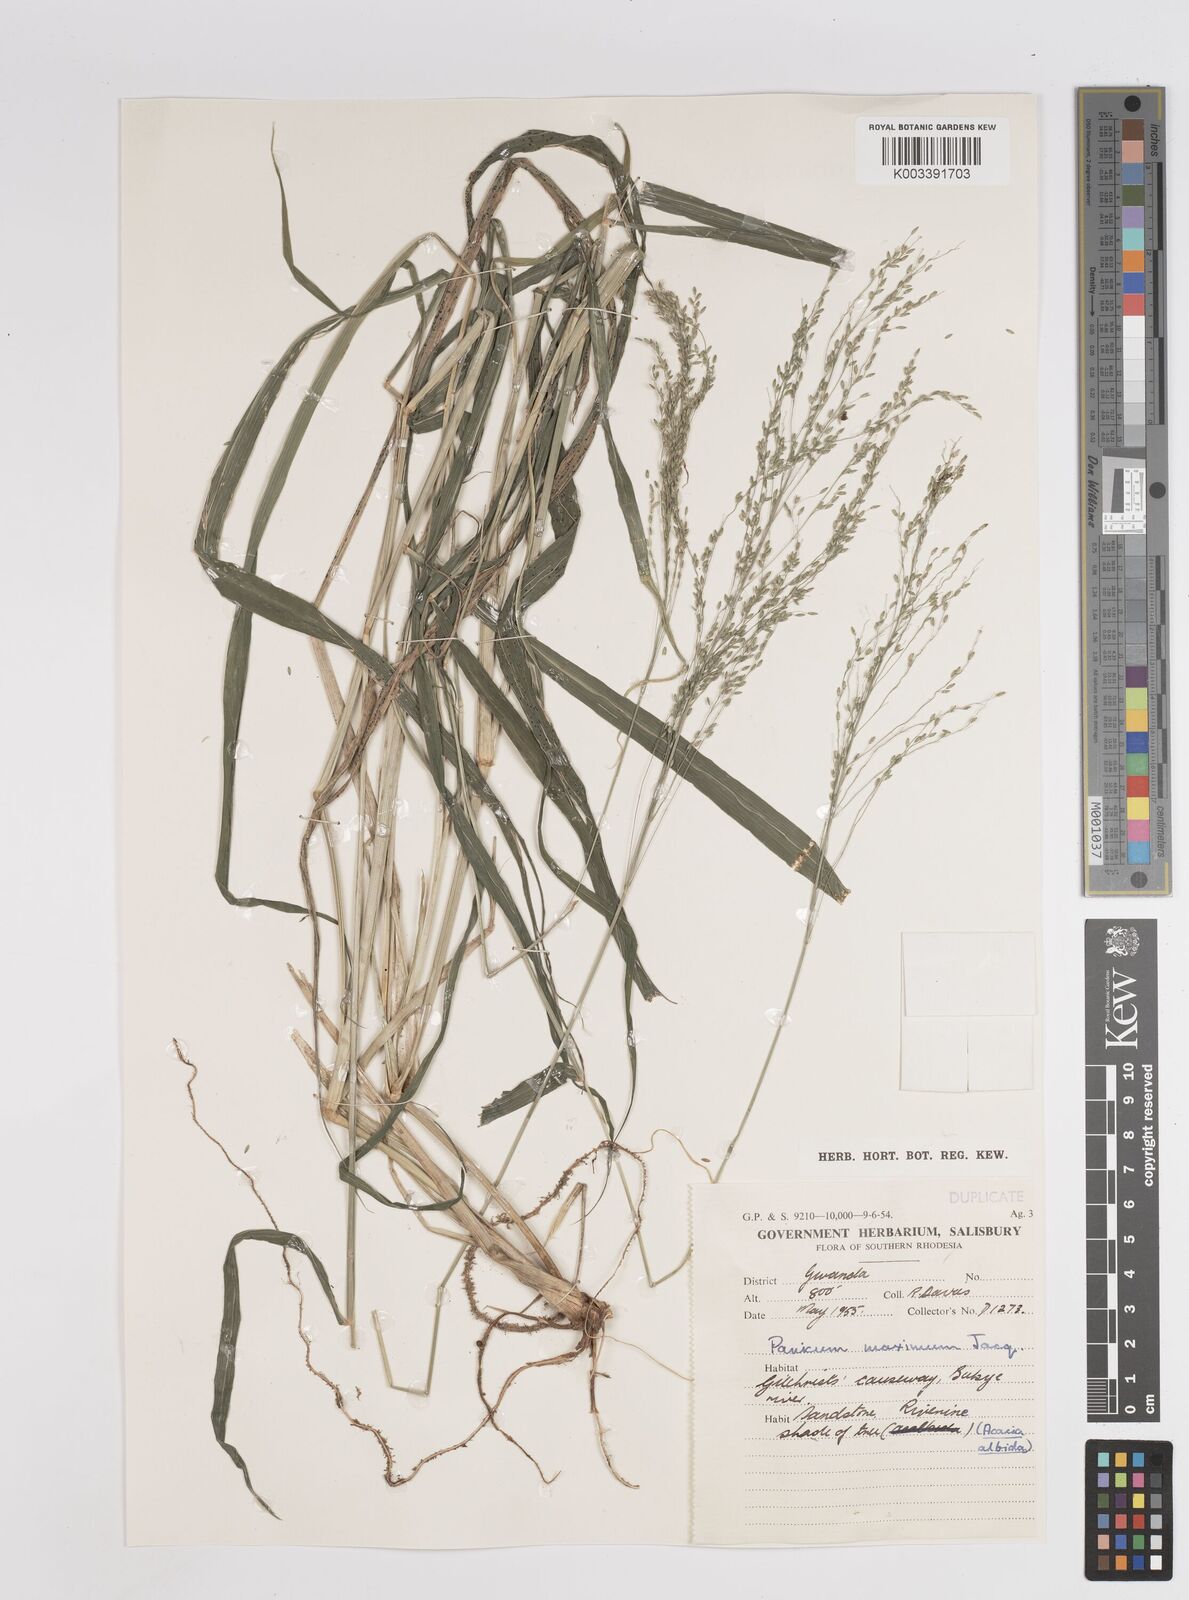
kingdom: Plantae
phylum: Tracheophyta
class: Liliopsida
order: Poales
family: Poaceae
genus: Megathyrsus
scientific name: Megathyrsus maximus
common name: Guineagrass
